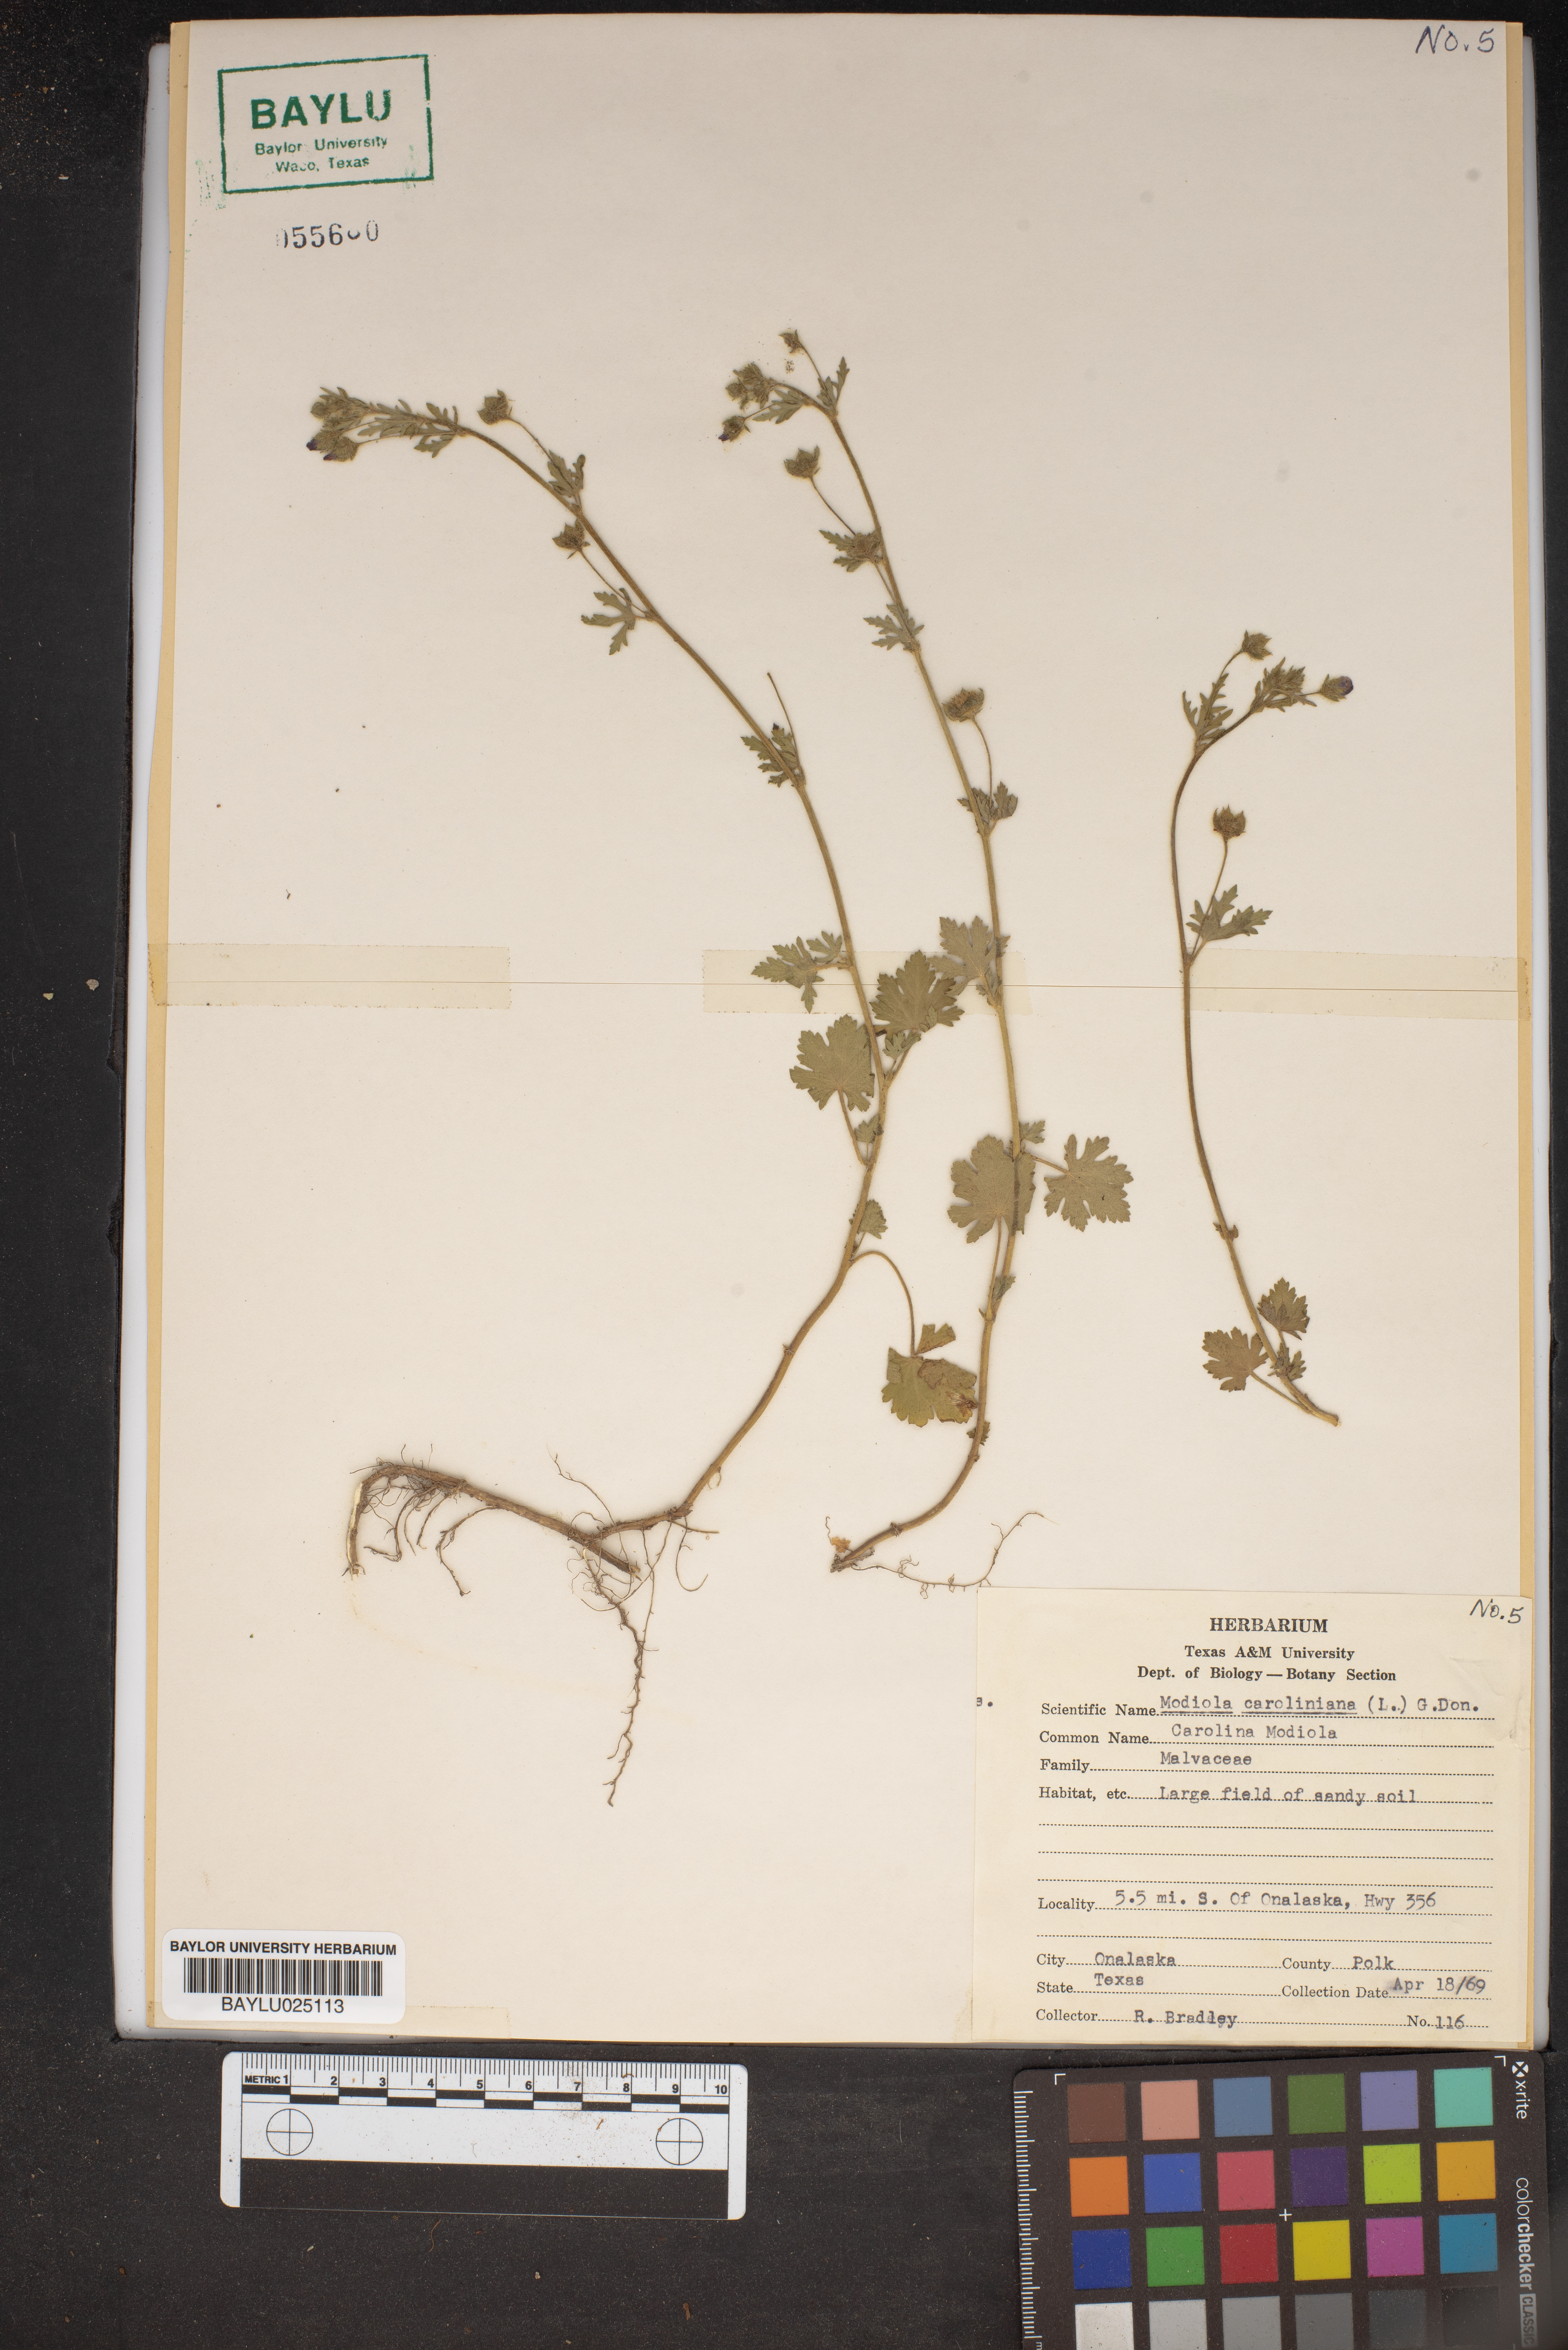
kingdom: Plantae
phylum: Tracheophyta
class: Magnoliopsida
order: Malvales
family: Malvaceae
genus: Modiola
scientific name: Modiola caroliniana
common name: Carolina bristlemallow
